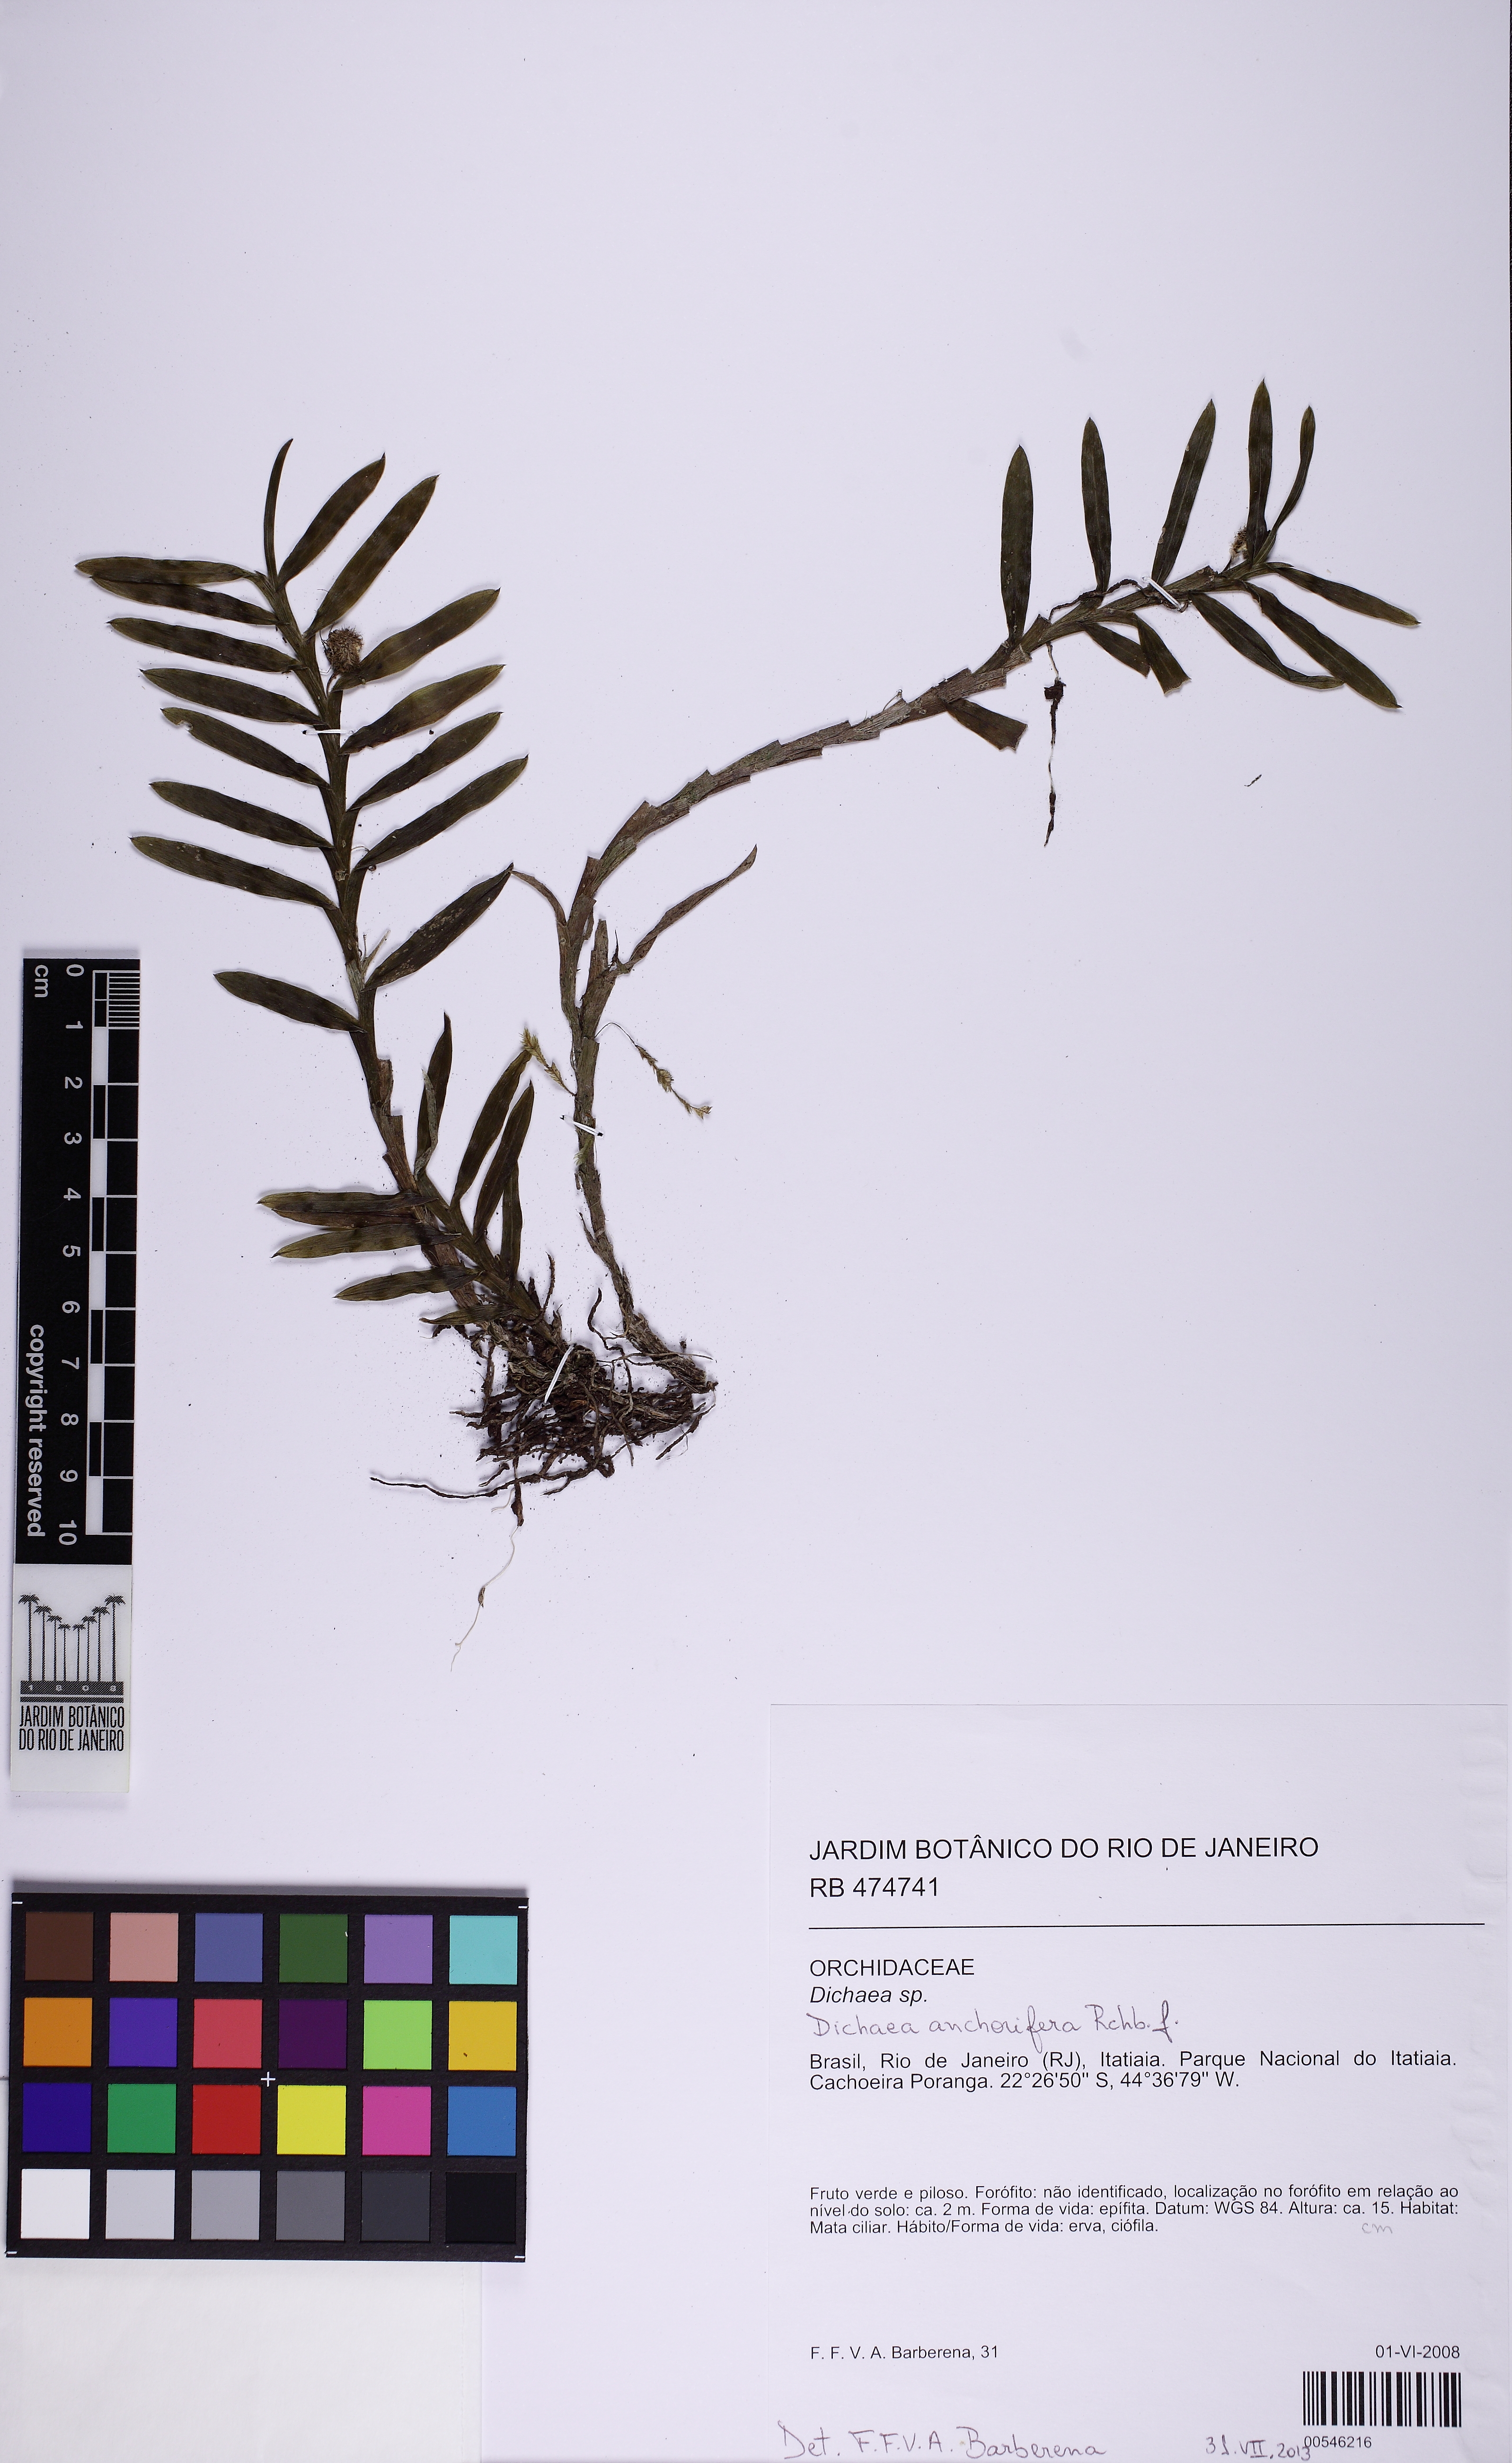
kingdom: Plantae
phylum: Tracheophyta
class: Liliopsida
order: Asparagales
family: Orchidaceae
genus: Dichaea
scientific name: Dichaea anchorifera
